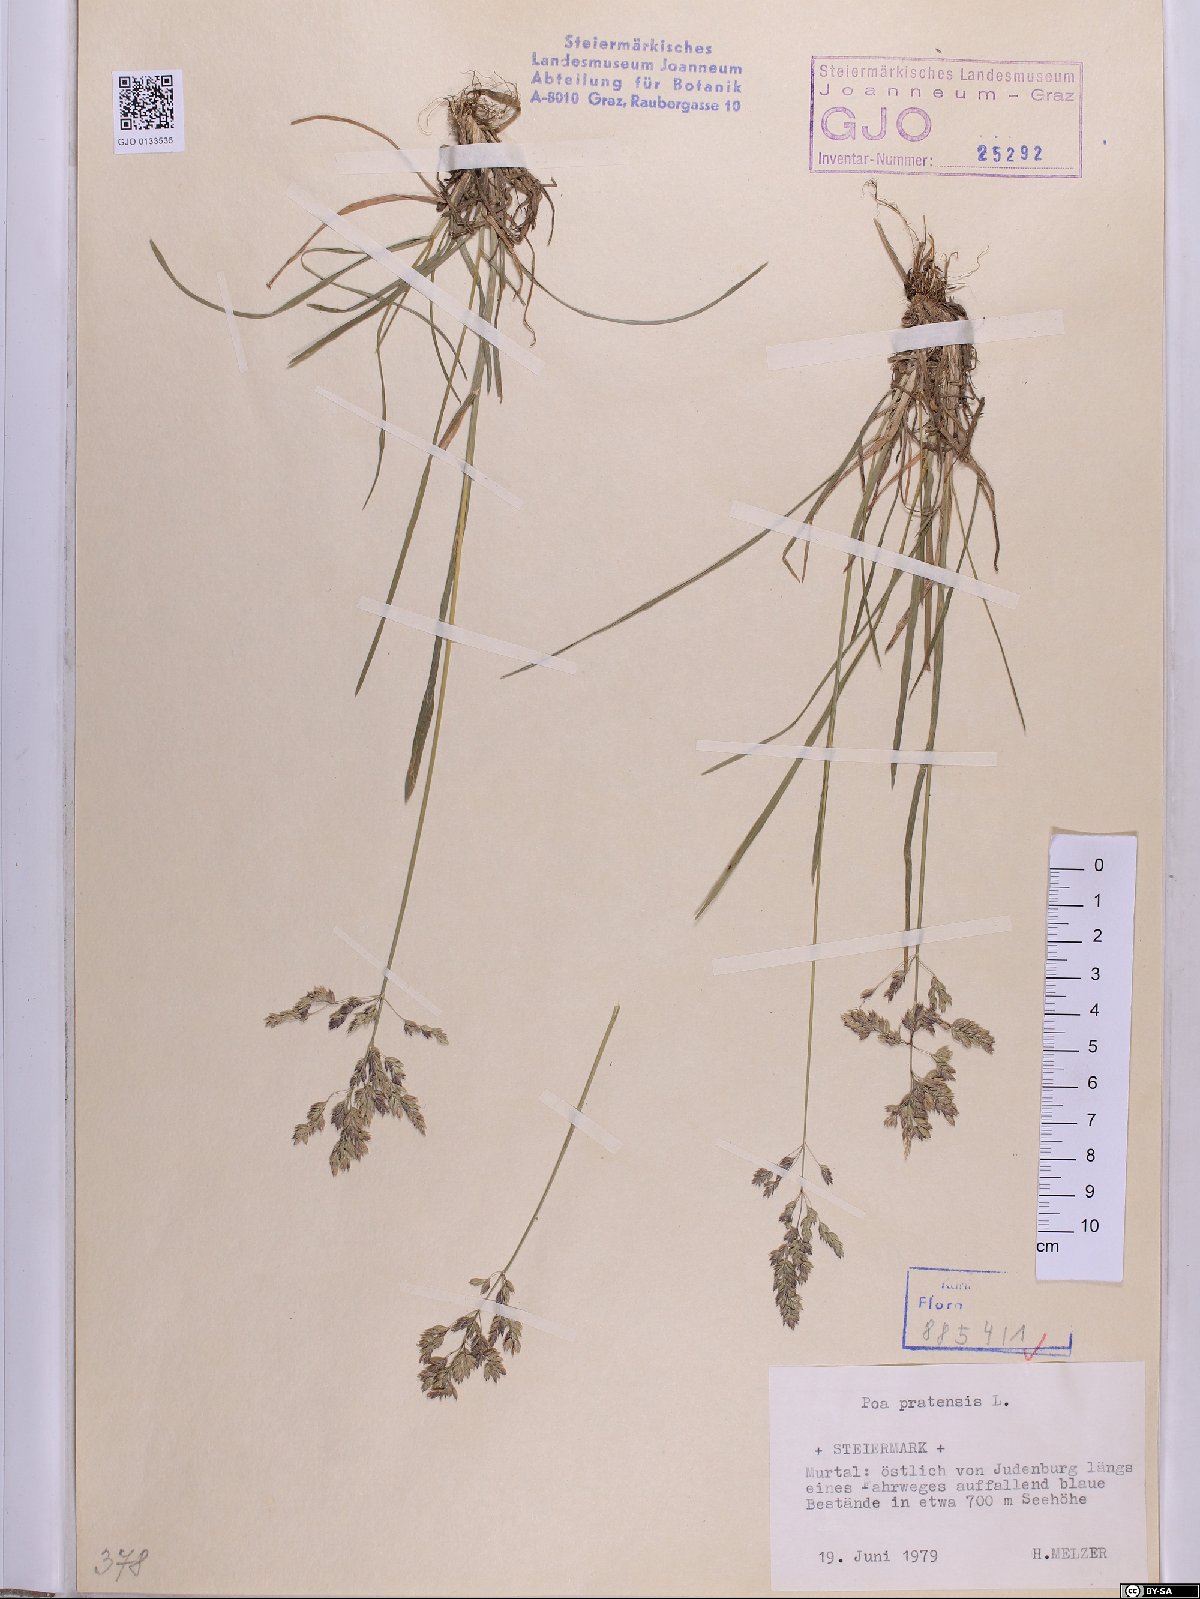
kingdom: Plantae
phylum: Tracheophyta
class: Liliopsida
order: Poales
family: Poaceae
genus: Poa
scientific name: Poa pratensis
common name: Kentucky bluegrass
